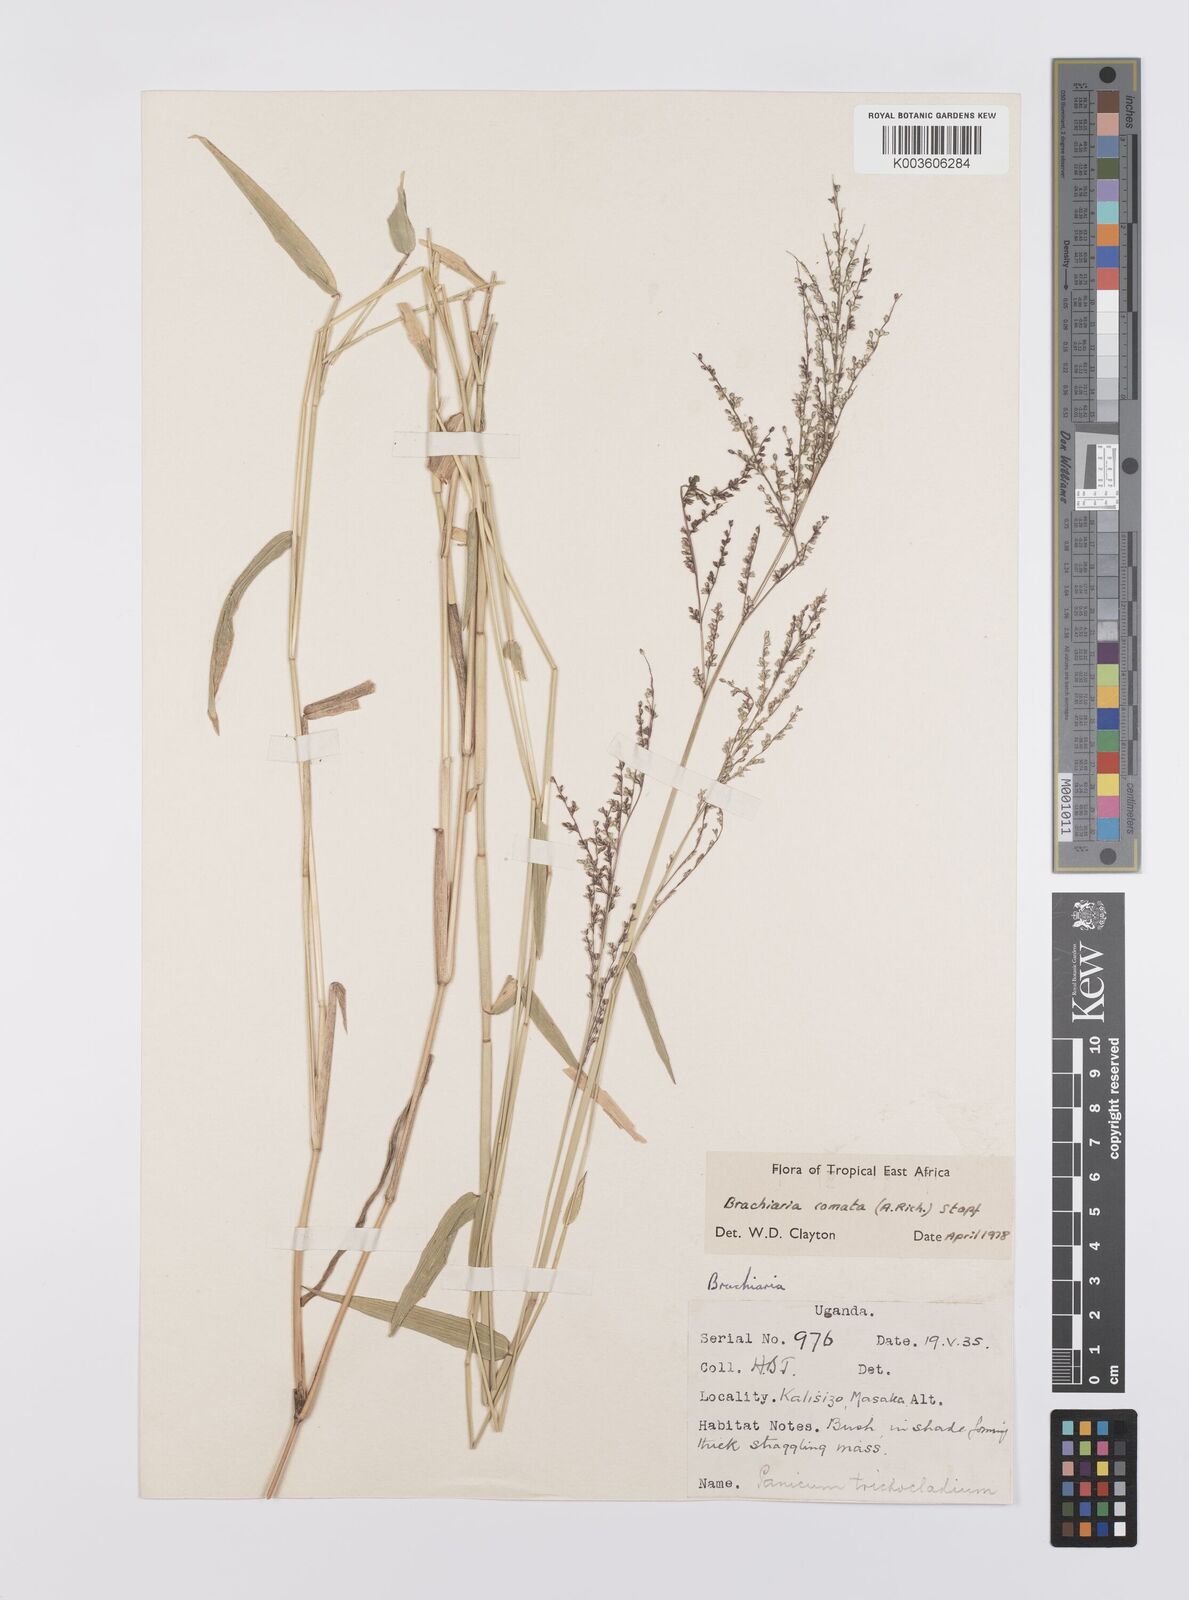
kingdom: Plantae
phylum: Tracheophyta
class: Liliopsida
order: Poales
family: Poaceae
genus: Urochloa
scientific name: Urochloa comata
